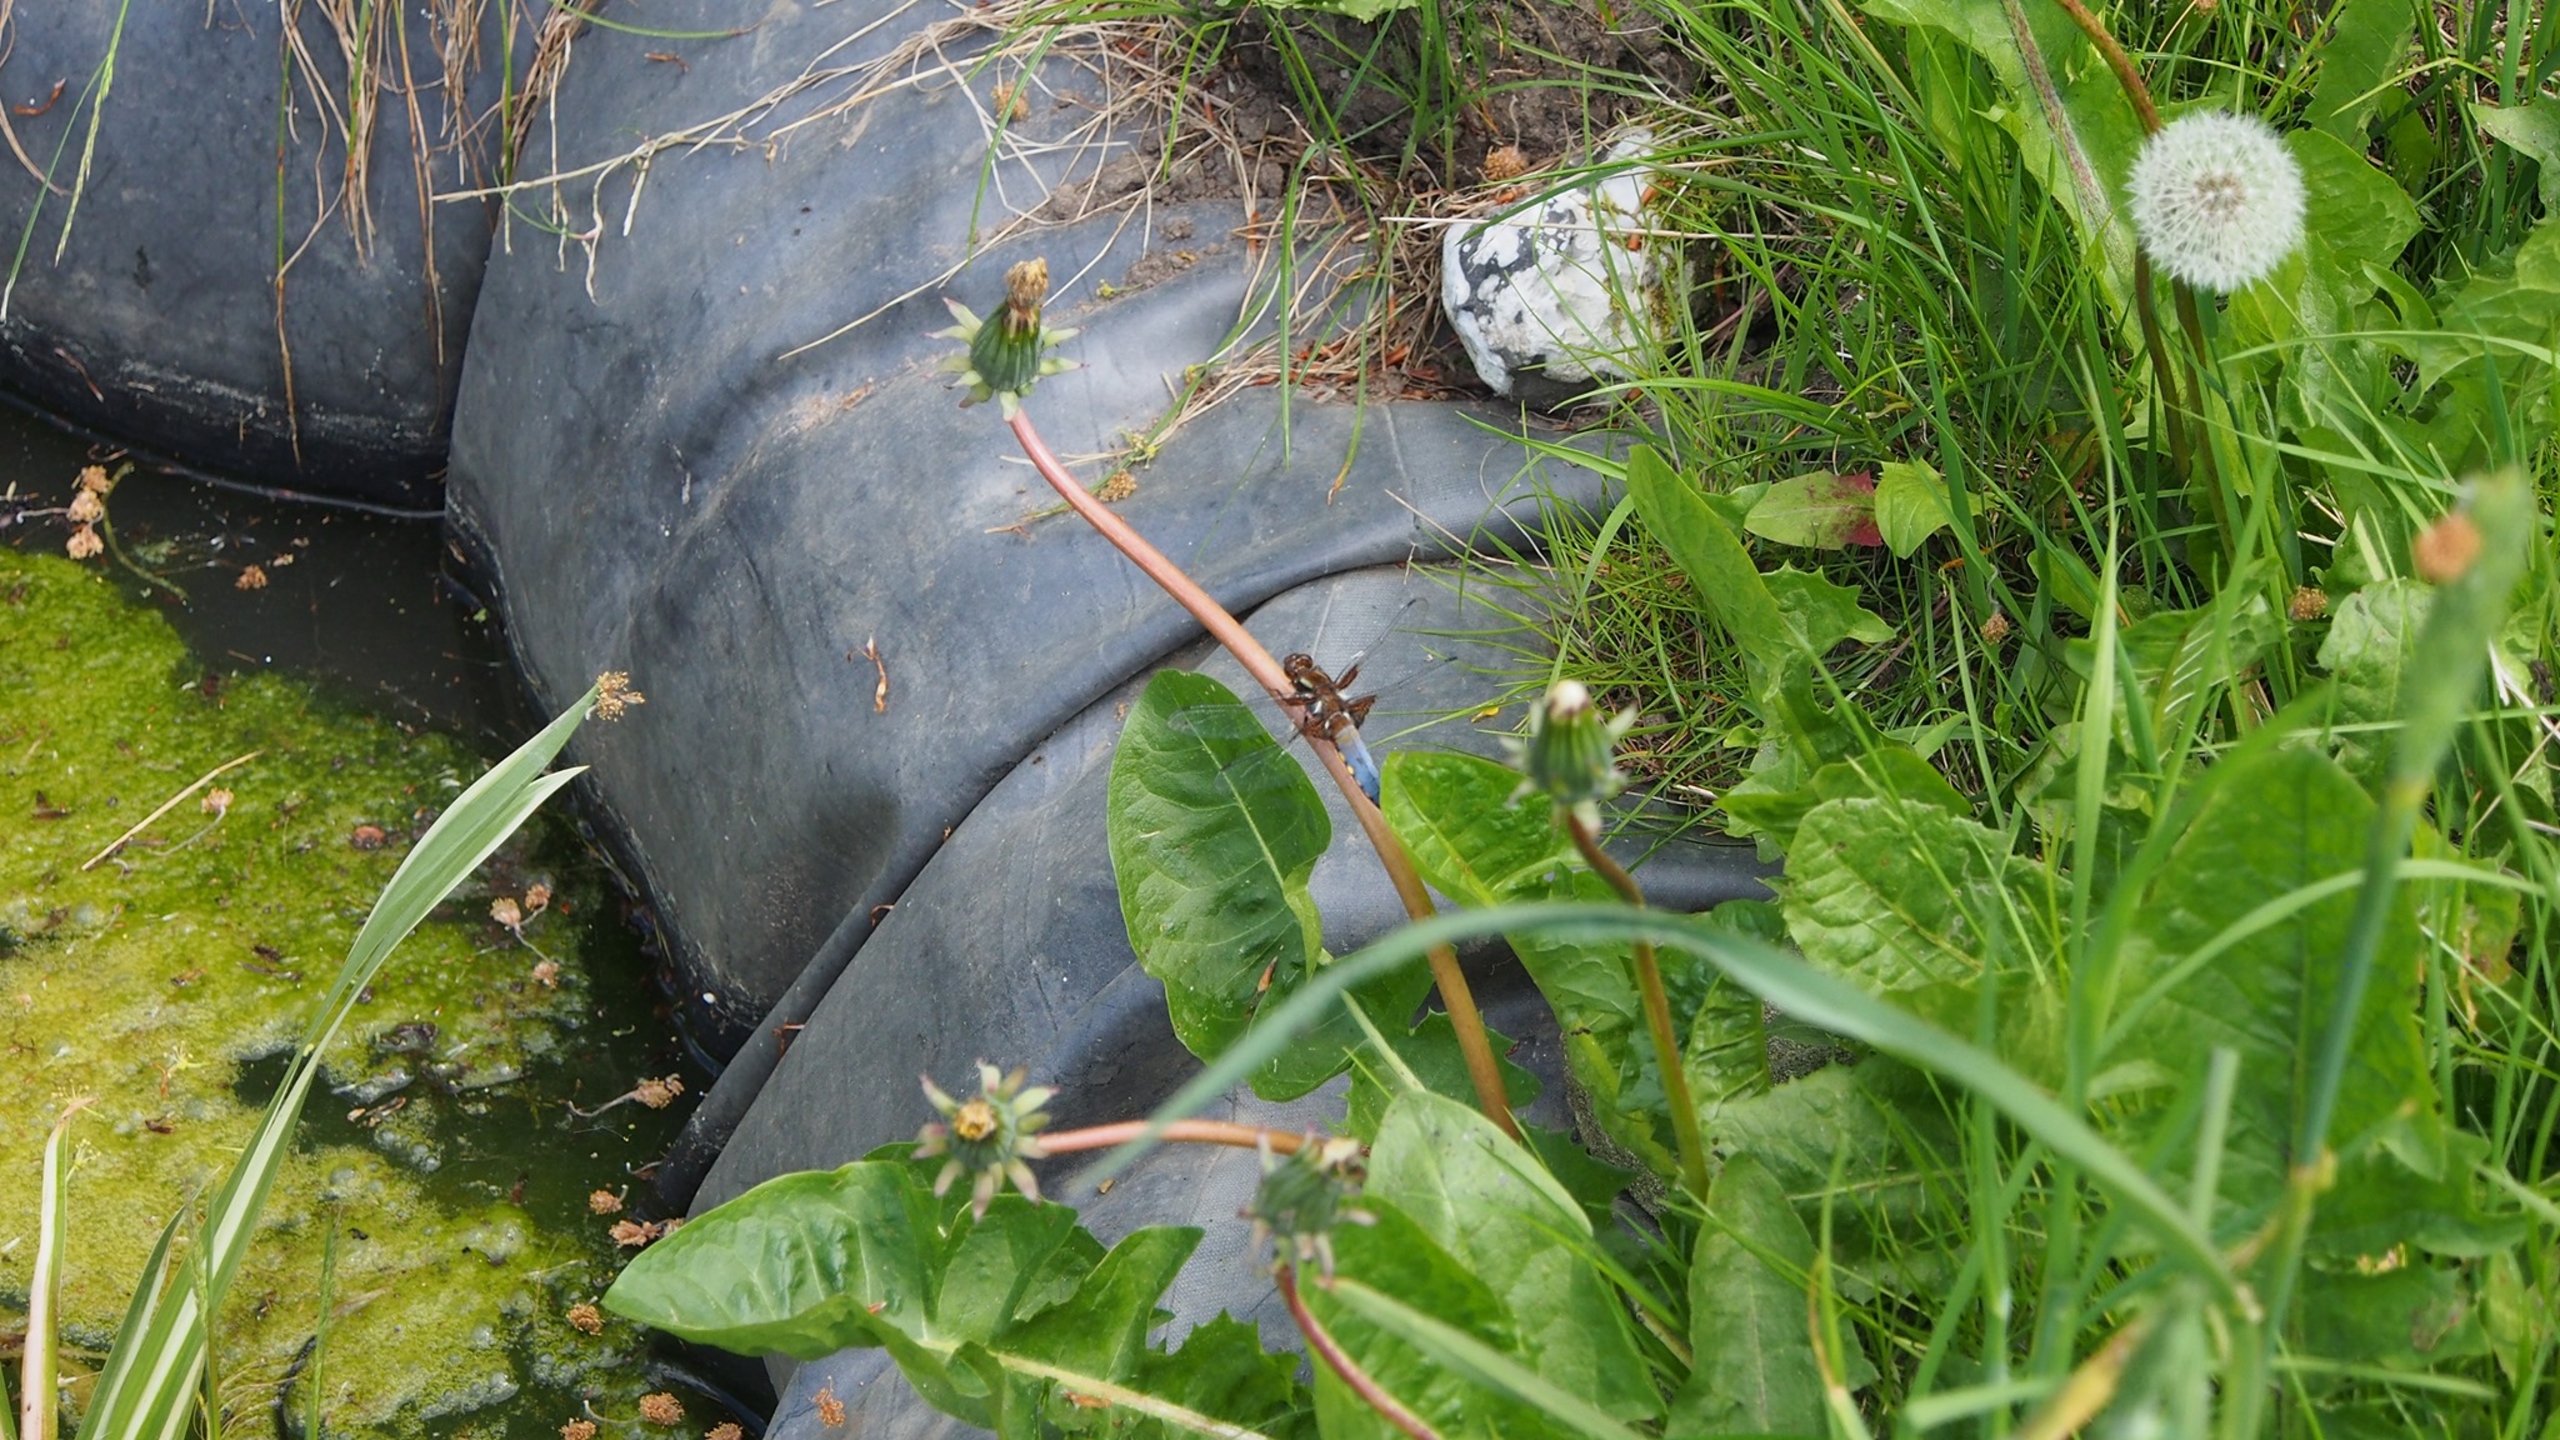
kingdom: Animalia
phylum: Arthropoda
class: Insecta
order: Odonata
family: Libellulidae
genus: Libellula
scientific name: Libellula depressa
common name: Blå libel
